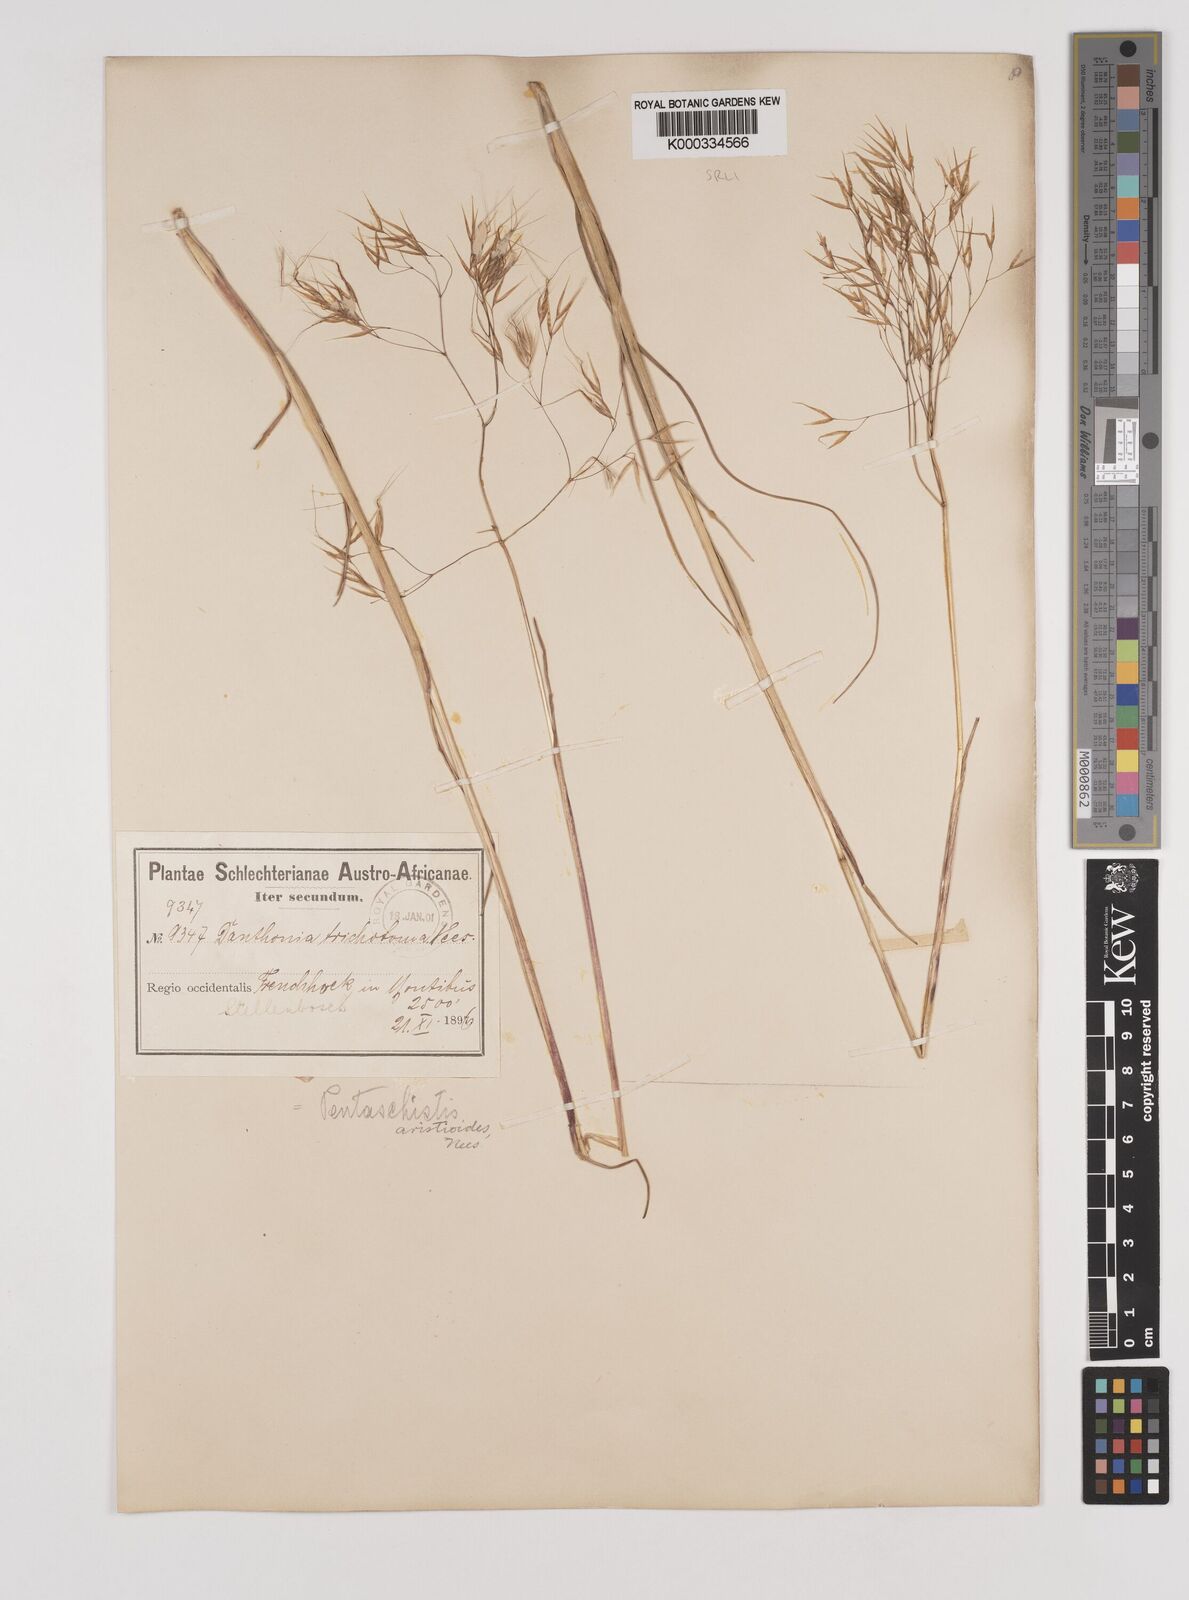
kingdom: Plantae
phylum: Tracheophyta
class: Liliopsida
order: Poales
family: Poaceae
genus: Pentameris
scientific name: Pentameris aristidoides
